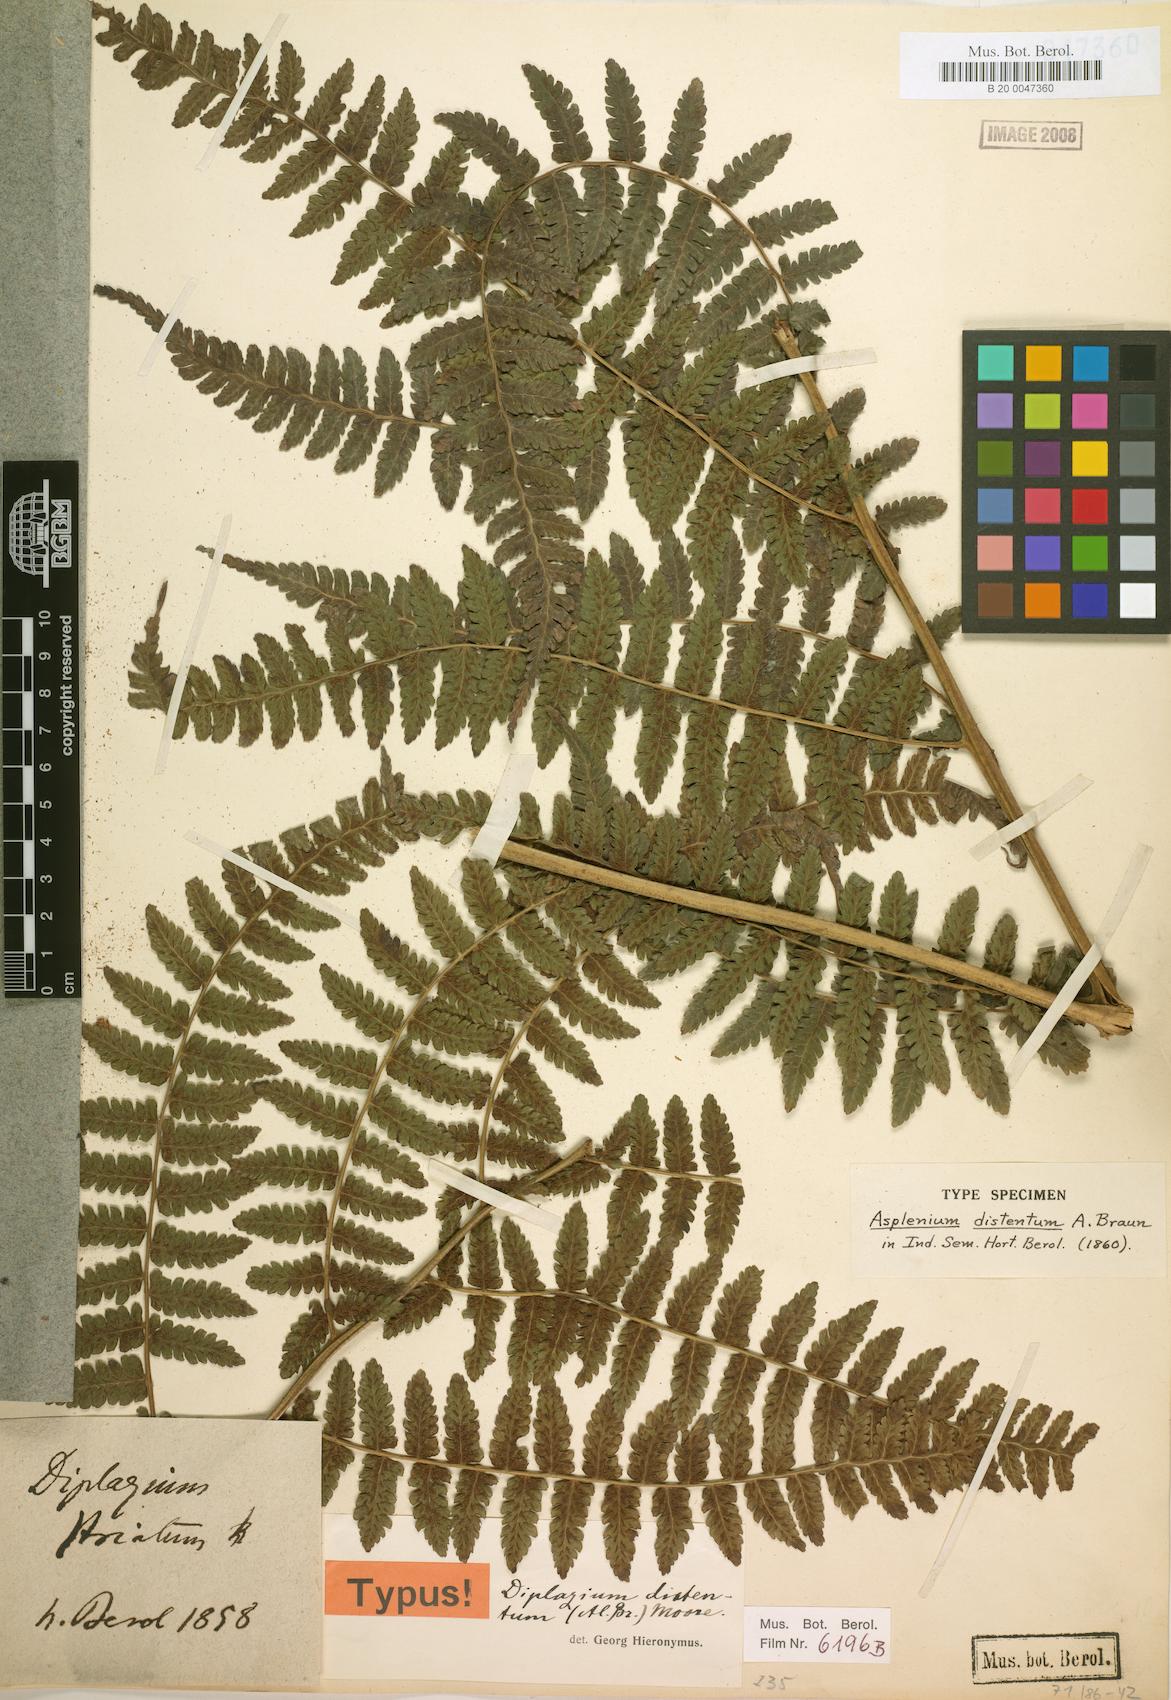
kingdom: Plantae
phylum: Tracheophyta
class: Polypodiopsida
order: Polypodiales
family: Athyriaceae
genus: Diplazium
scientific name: Diplazium expansum
